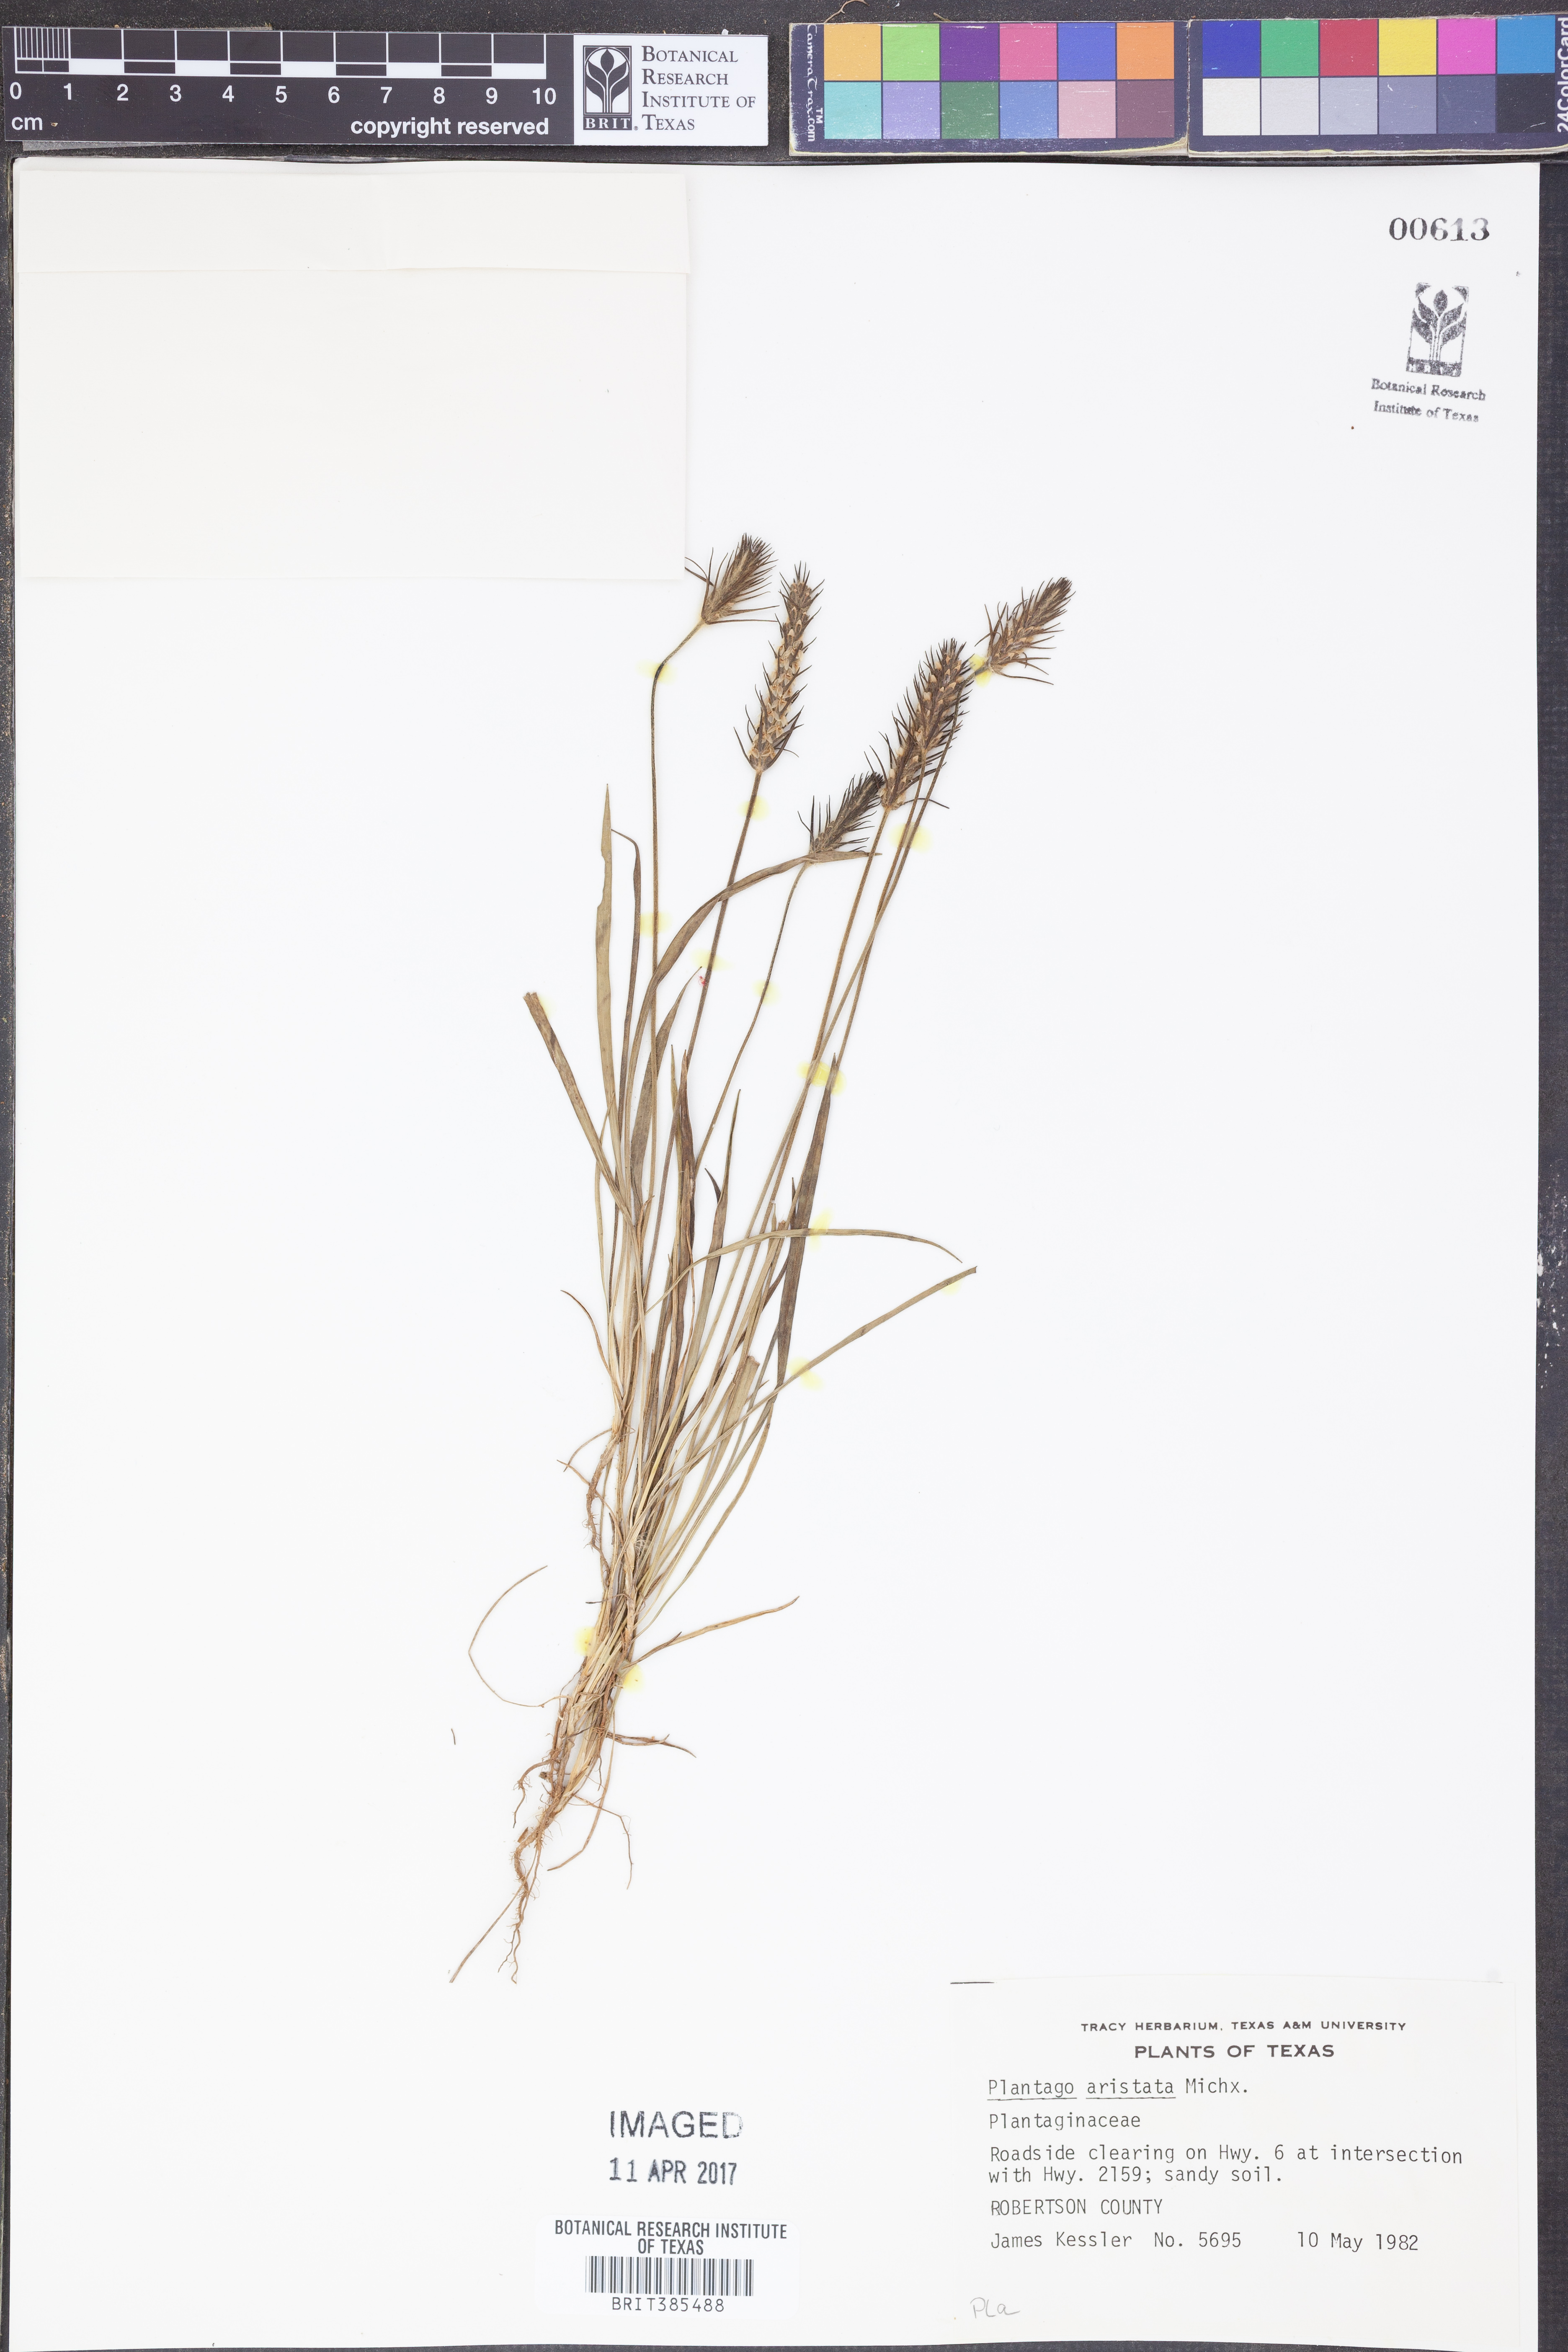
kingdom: Plantae
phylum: Tracheophyta
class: Magnoliopsida
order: Lamiales
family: Plantaginaceae
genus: Plantago
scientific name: Plantago aristata
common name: Bracted plantain
